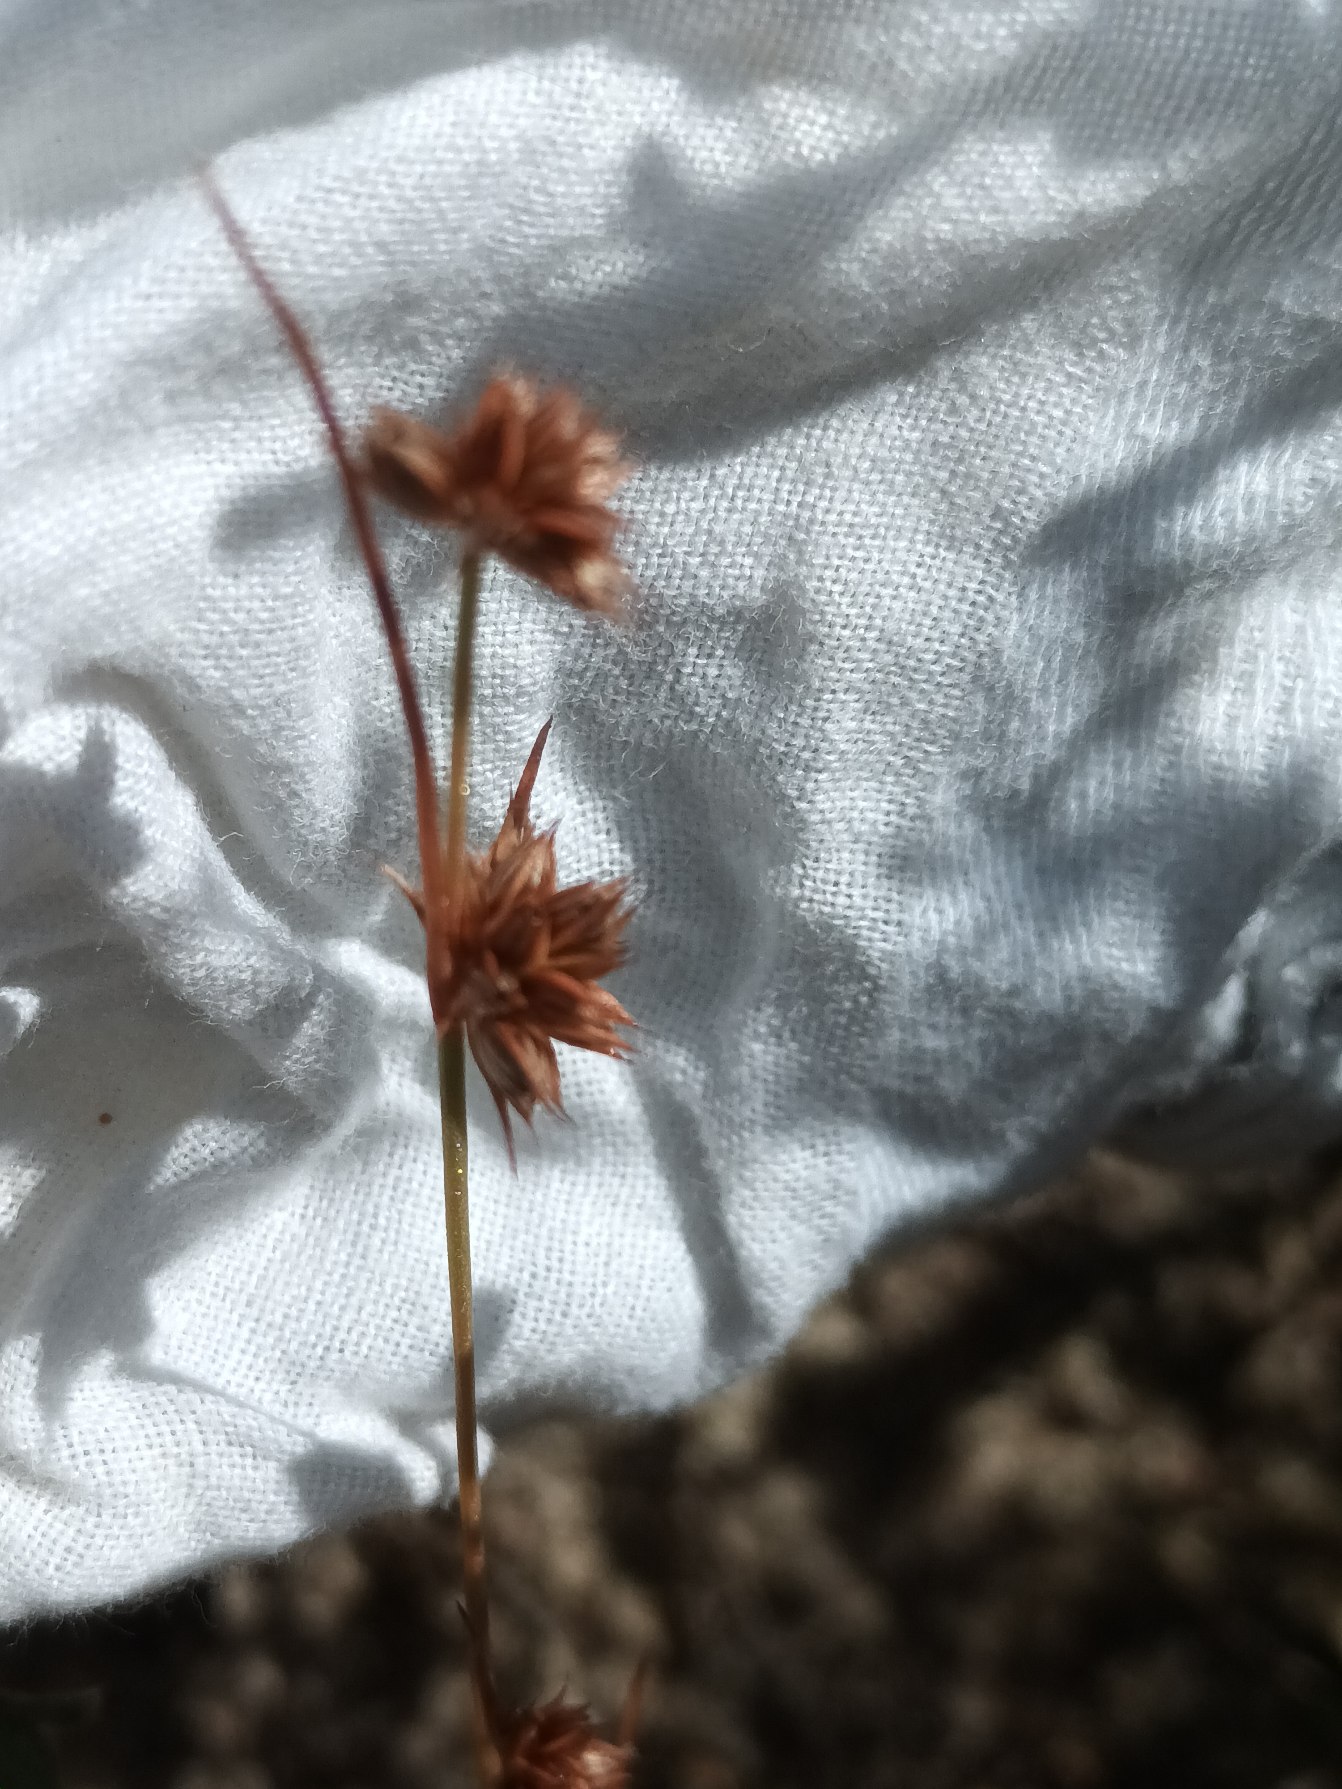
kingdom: Plantae
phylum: Tracheophyta
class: Liliopsida
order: Poales
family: Juncaceae
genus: Juncus
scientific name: Juncus capitatus
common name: Fin siv
